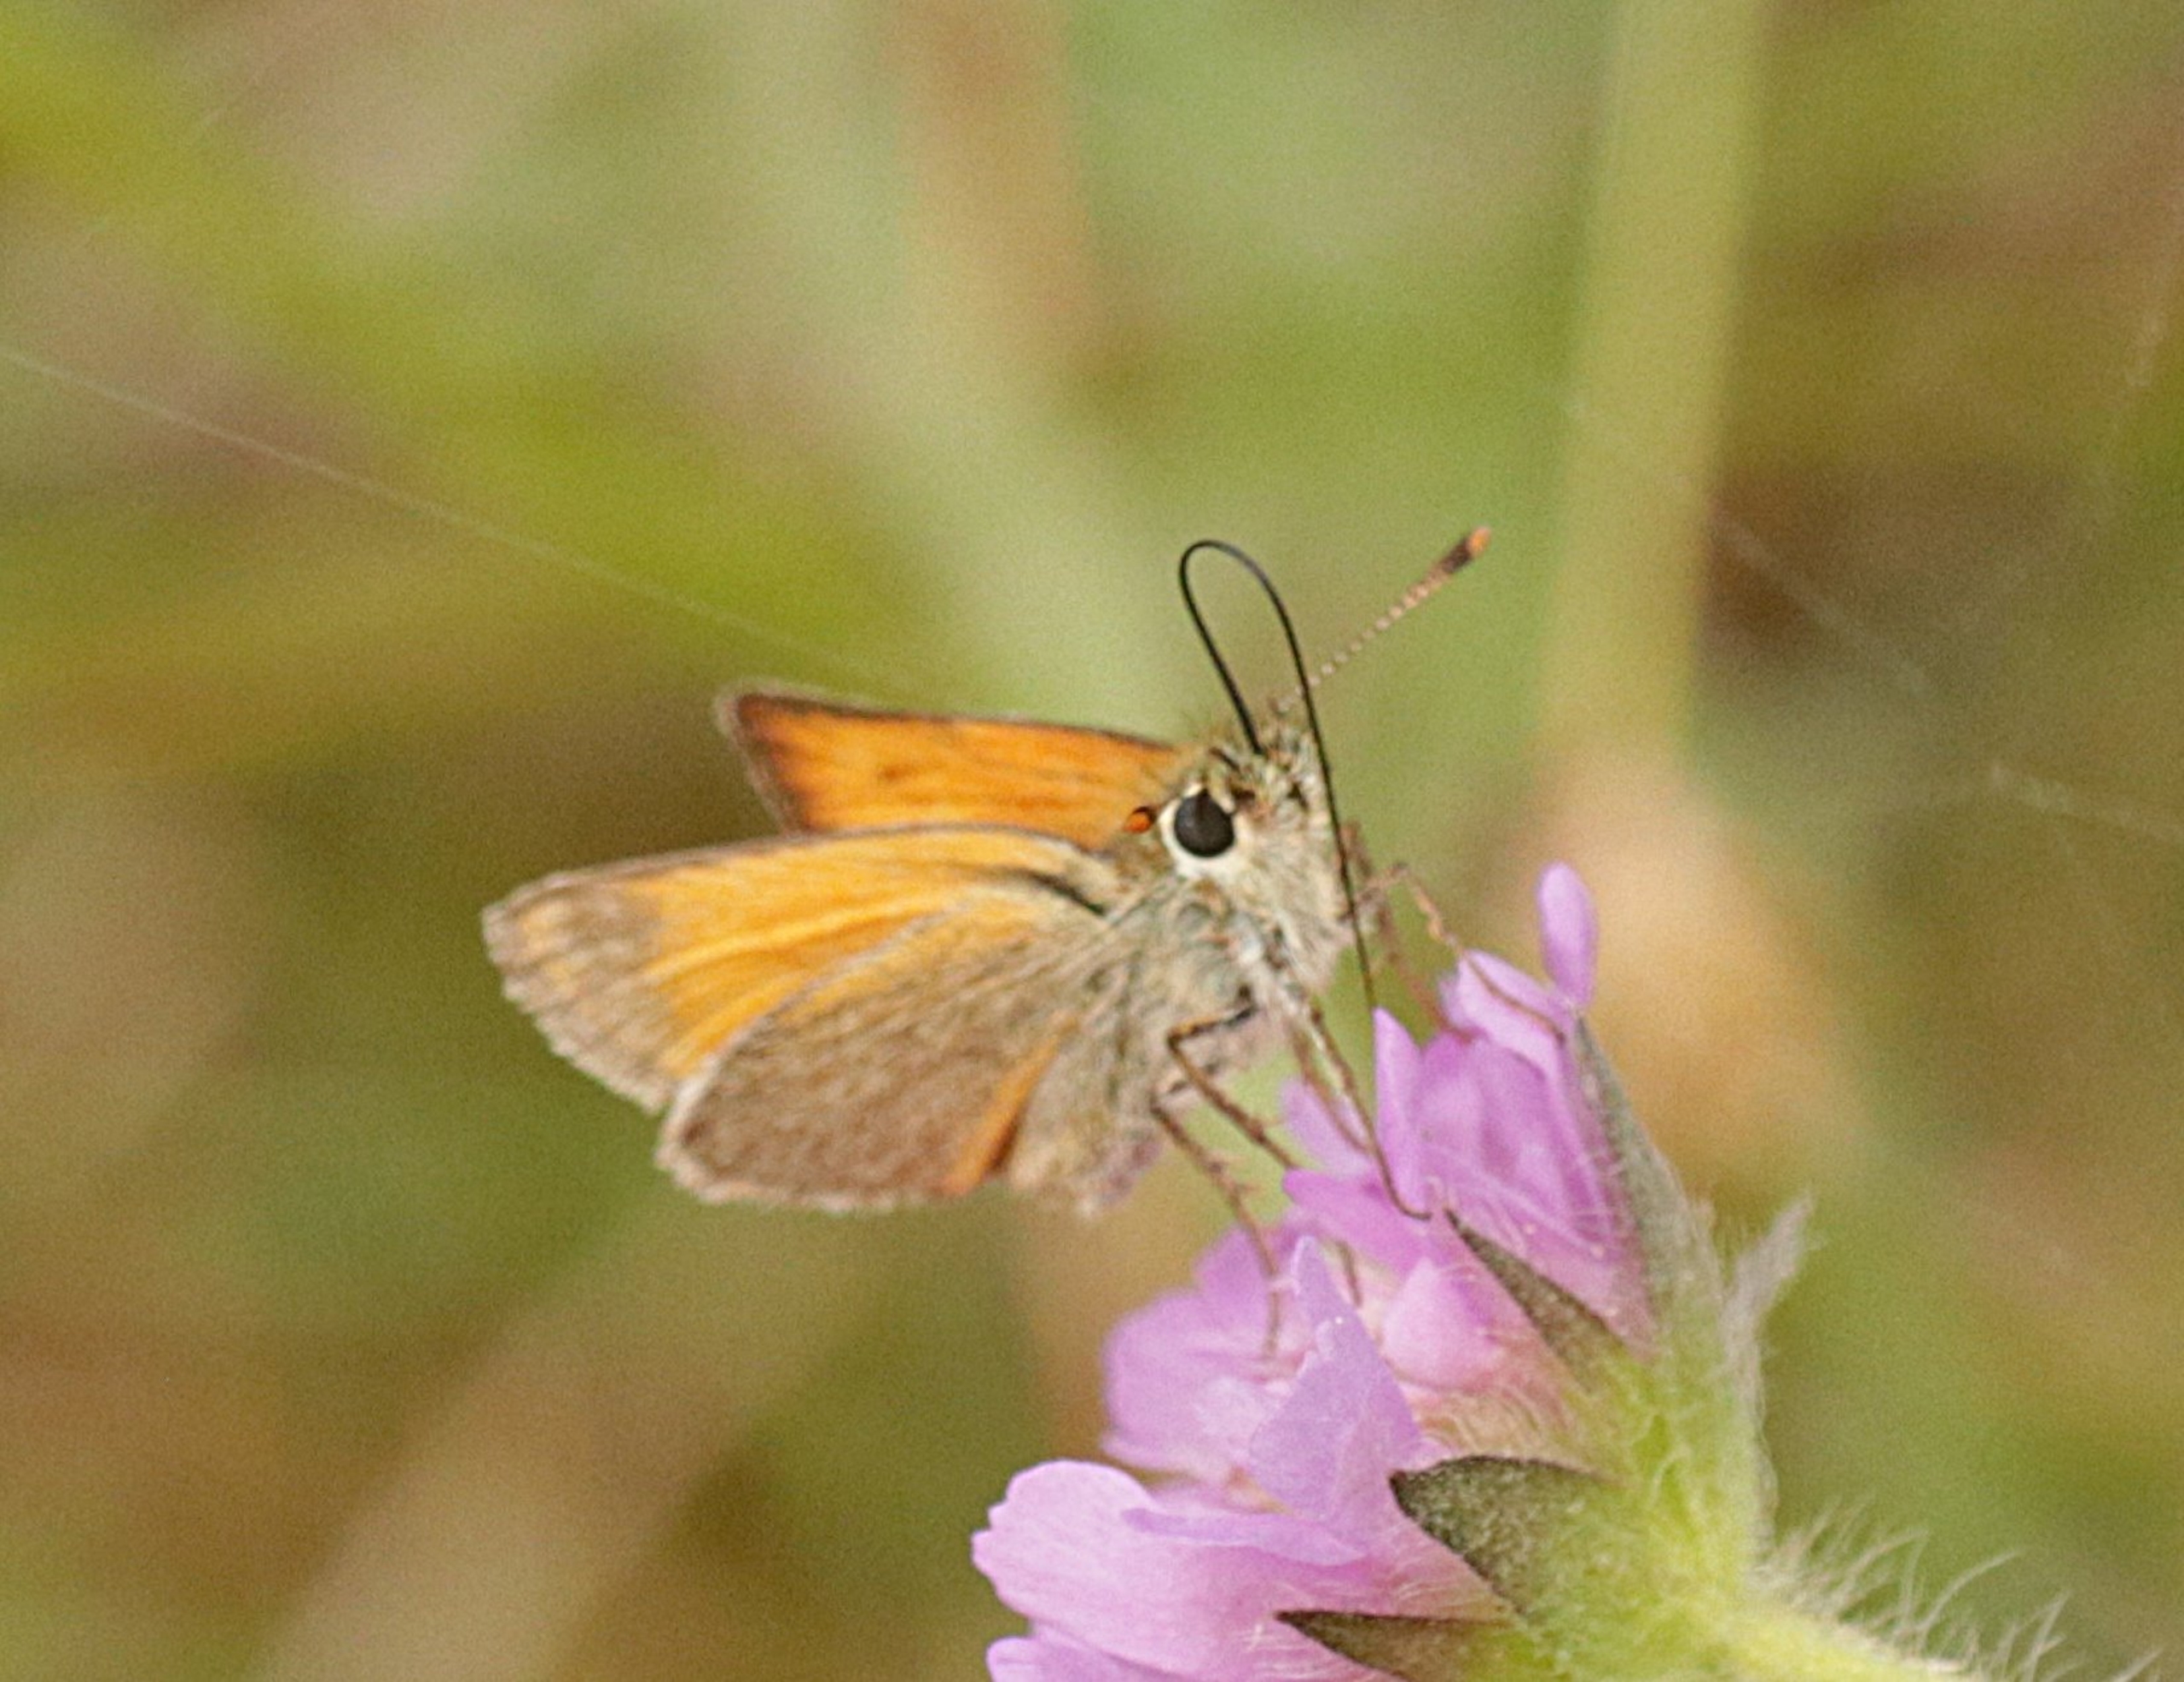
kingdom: Animalia
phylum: Arthropoda
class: Insecta
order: Lepidoptera
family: Hesperiidae
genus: Thymelicus
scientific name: Thymelicus sylvestris
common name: Skråstregbredpande
